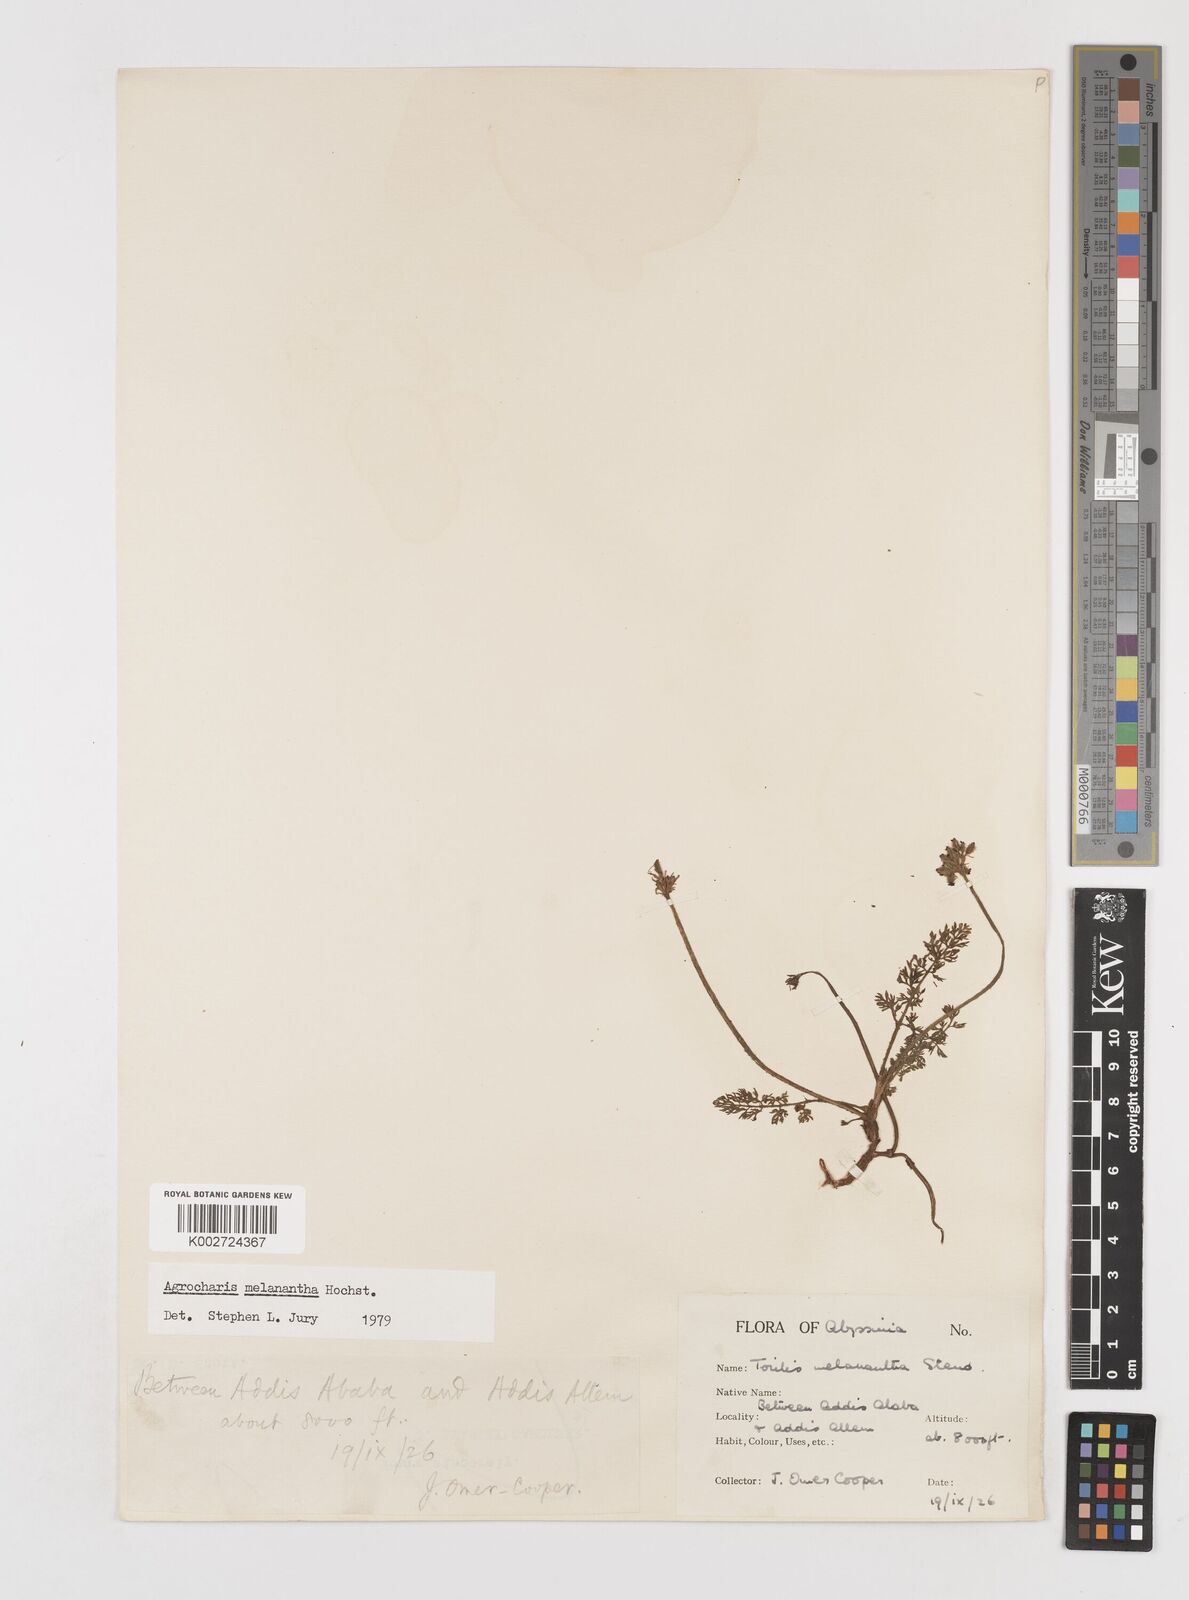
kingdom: Plantae
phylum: Tracheophyta
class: Magnoliopsida
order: Apiales
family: Apiaceae
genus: Daucus
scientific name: Daucus melananthus
